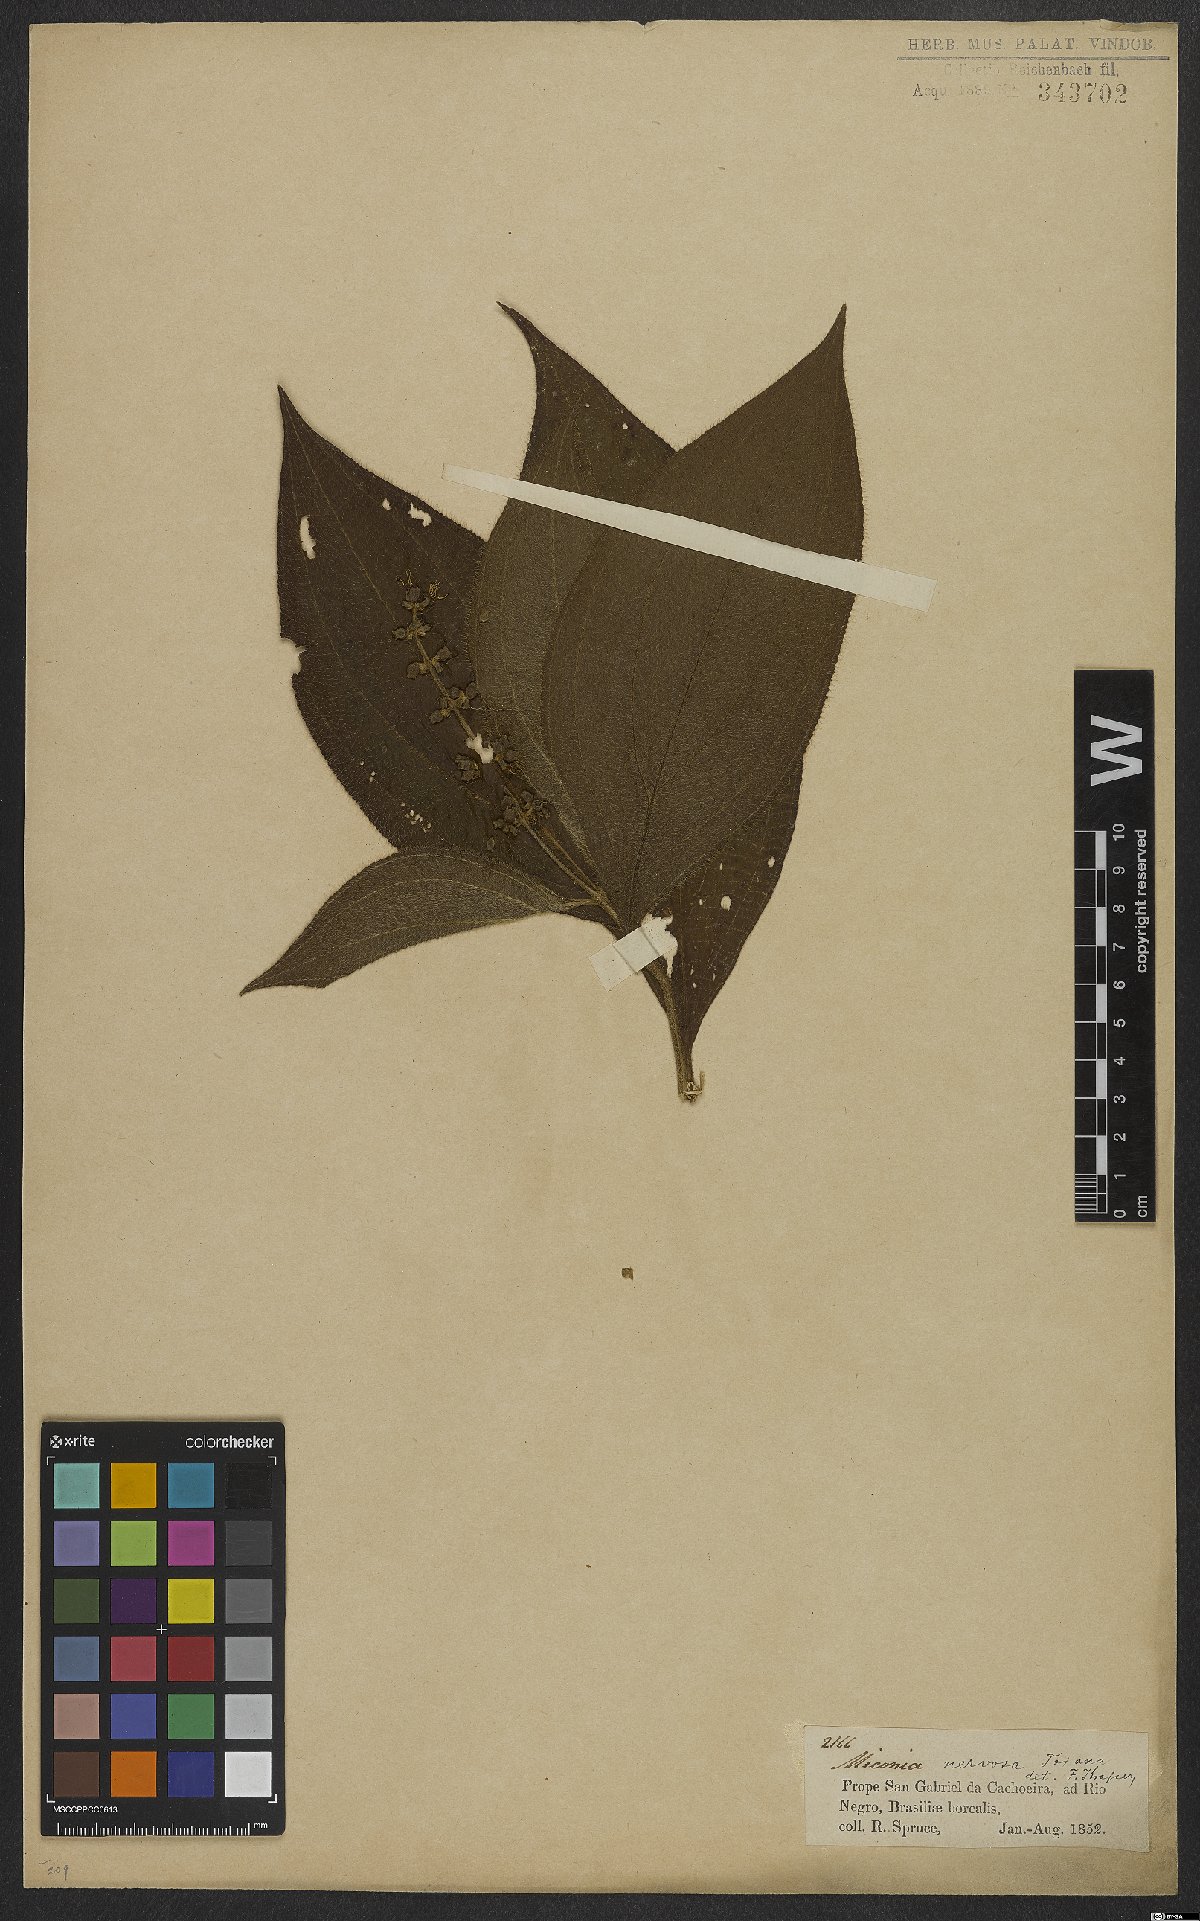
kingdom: Plantae
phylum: Tracheophyta
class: Magnoliopsida
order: Myrtales
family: Melastomataceae
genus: Miconia
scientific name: Miconia nervosa
